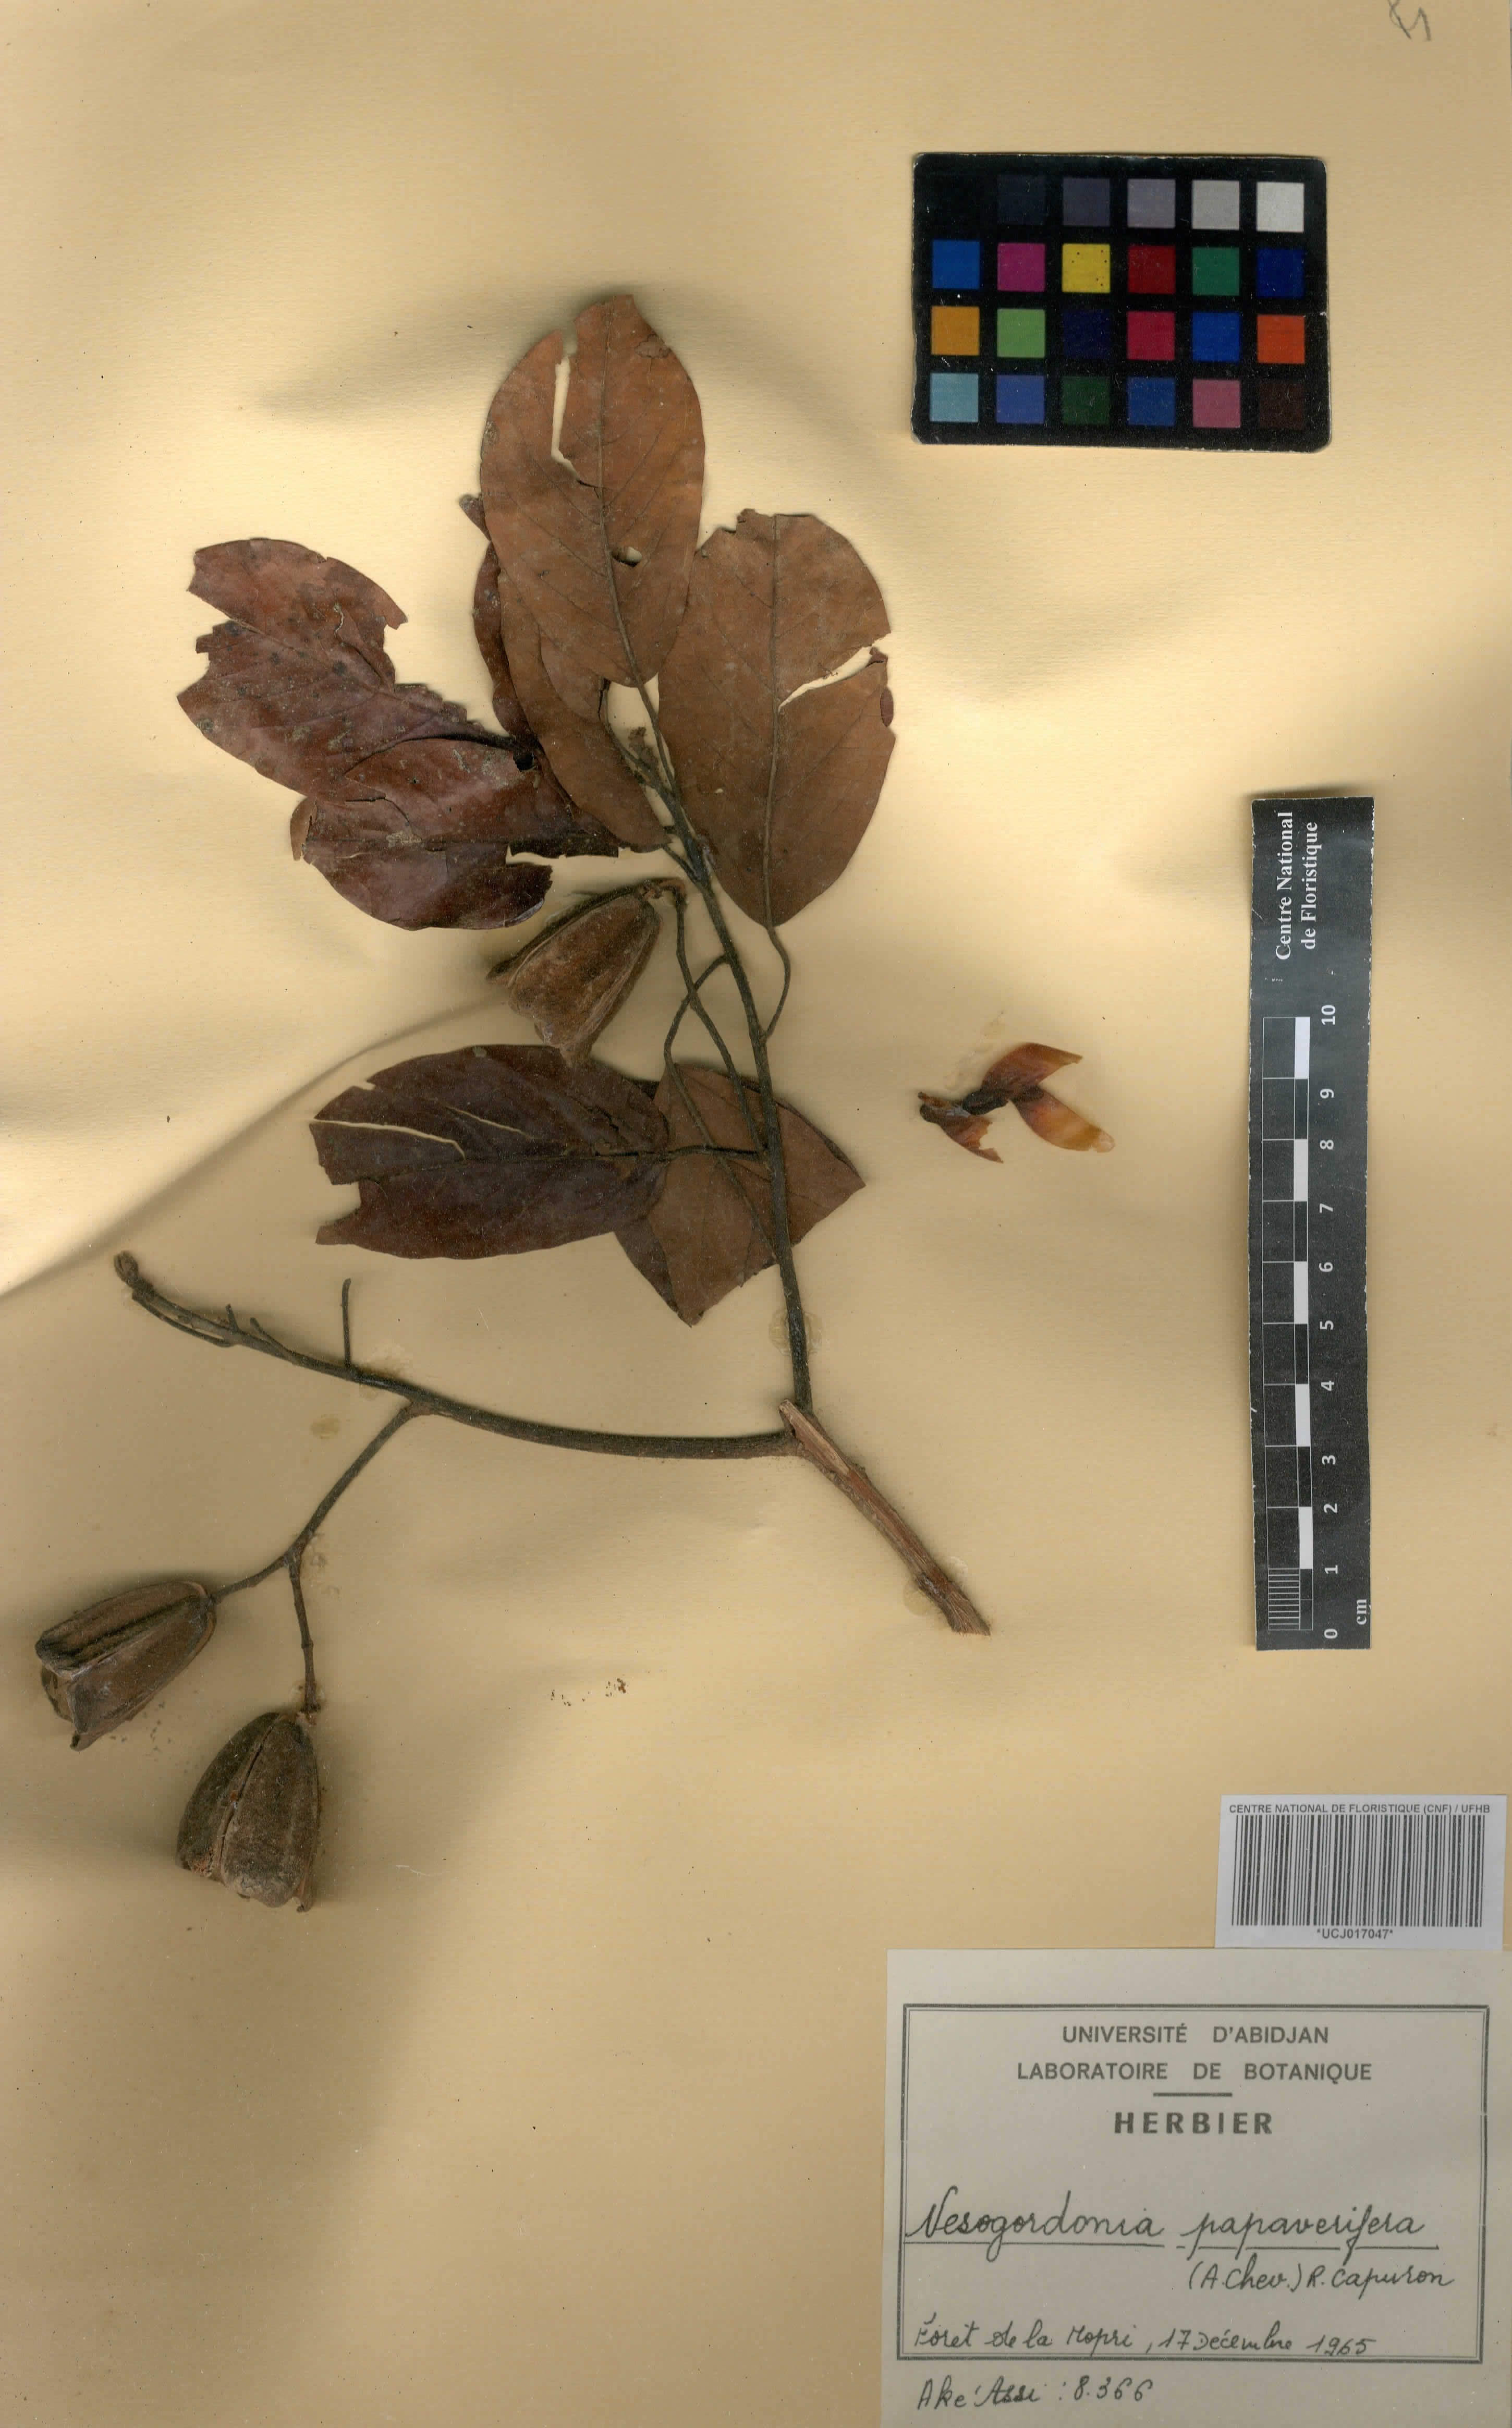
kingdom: Plantae
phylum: Tracheophyta
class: Magnoliopsida
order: Malvales
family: Malvaceae
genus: Nesogordonia
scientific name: Nesogordonia papaverifera
